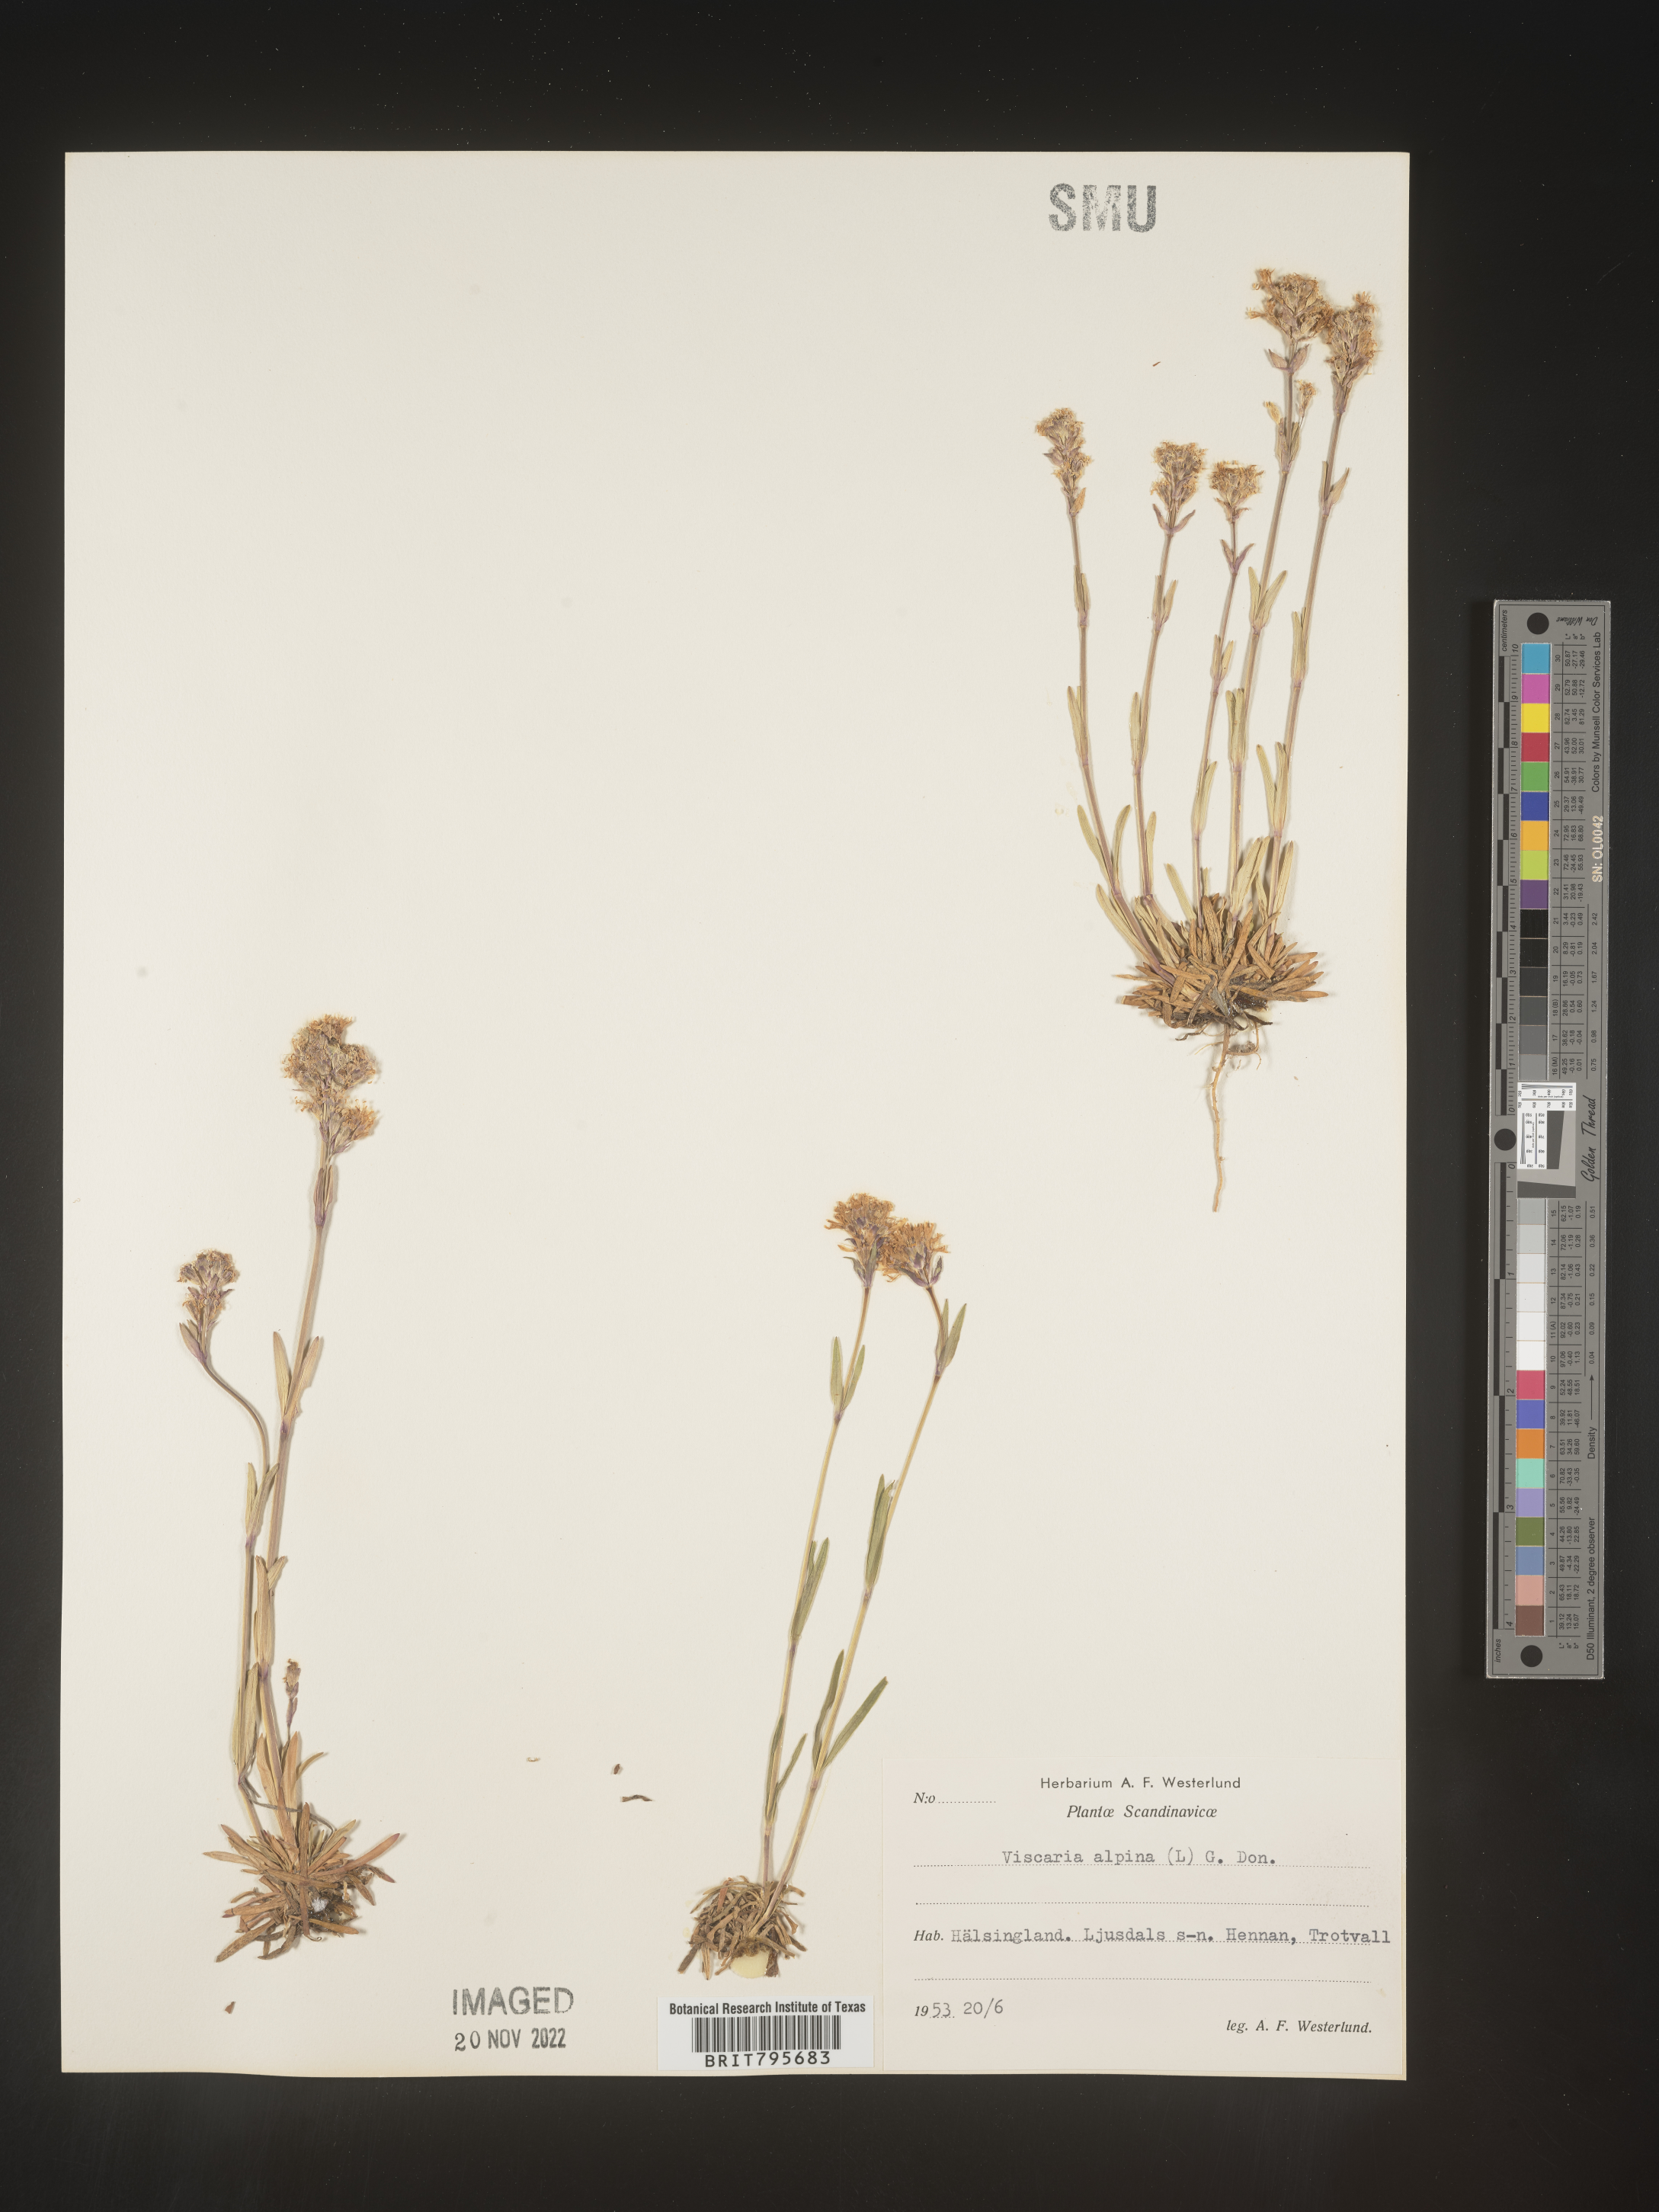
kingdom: Plantae
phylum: Tracheophyta
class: Magnoliopsida
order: Caryophyllales
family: Caryophyllaceae
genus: Viscaria
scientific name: Viscaria
